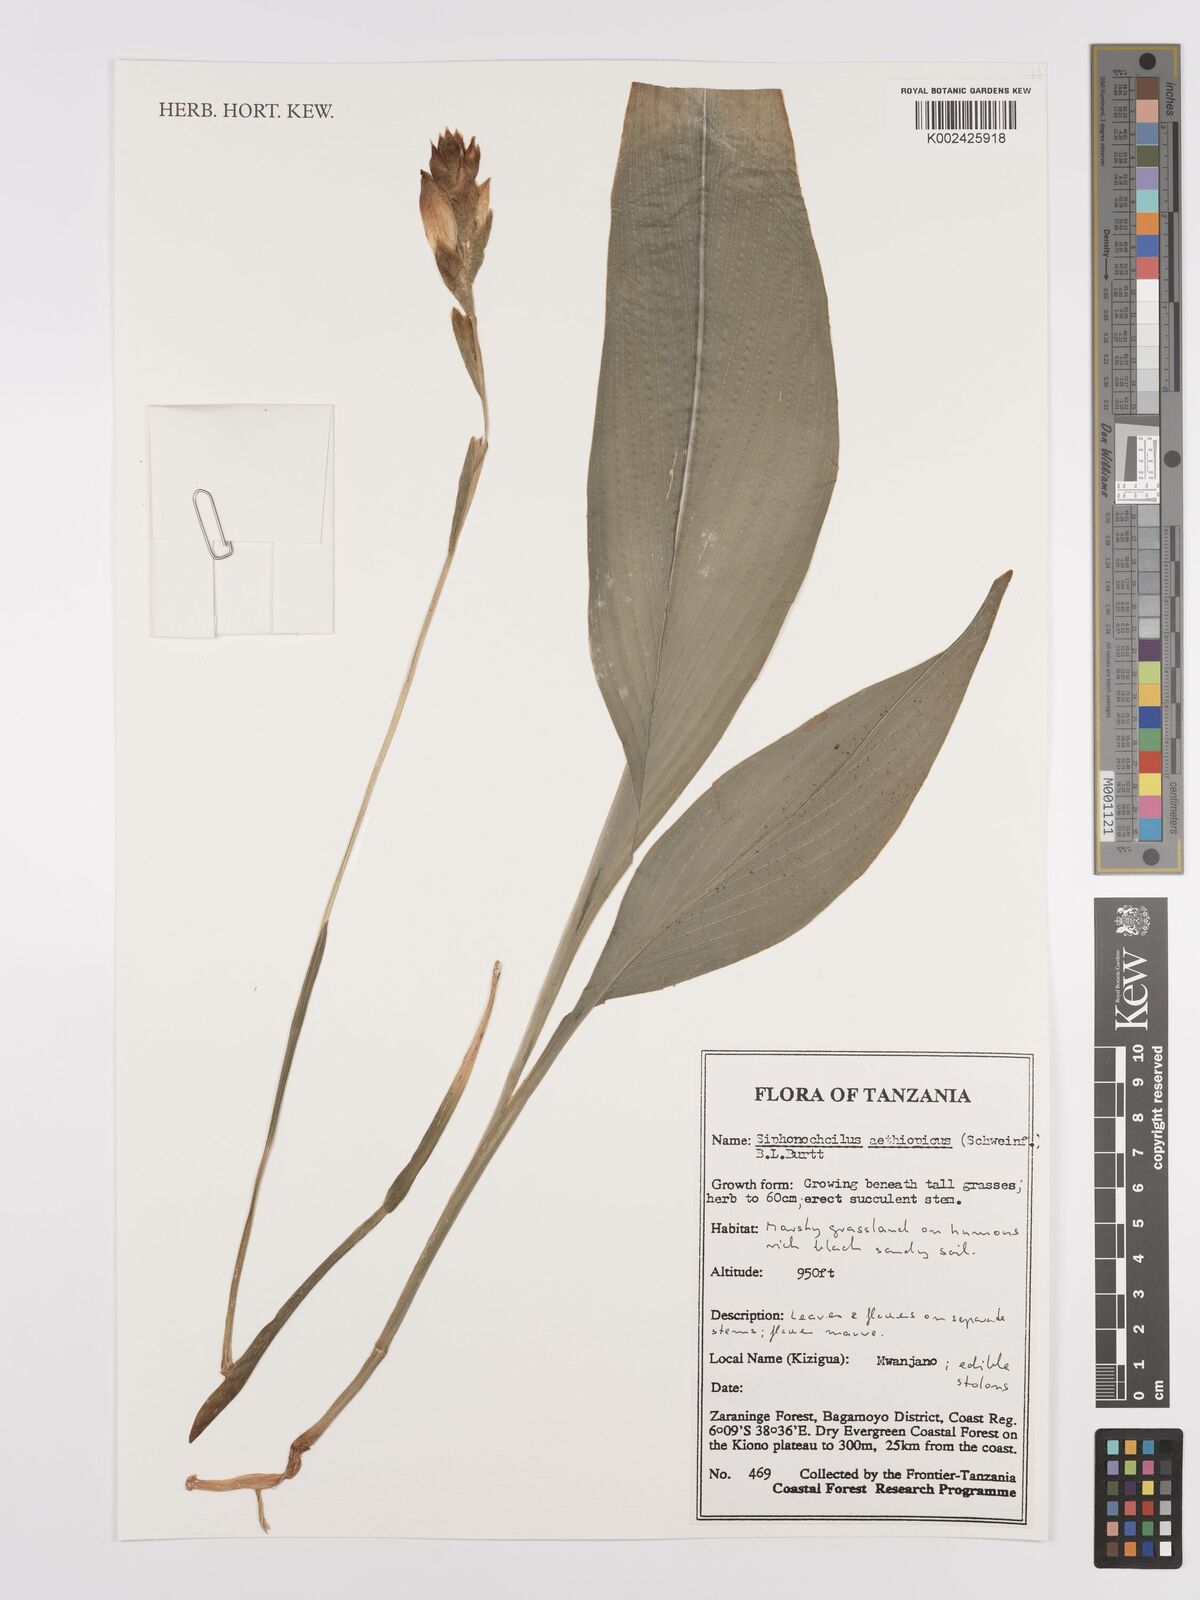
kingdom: Plantae
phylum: Tracheophyta
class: Liliopsida
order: Zingiberales
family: Zingiberaceae
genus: Siphonochilus
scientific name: Siphonochilus aethiopicus
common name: African-ginger
